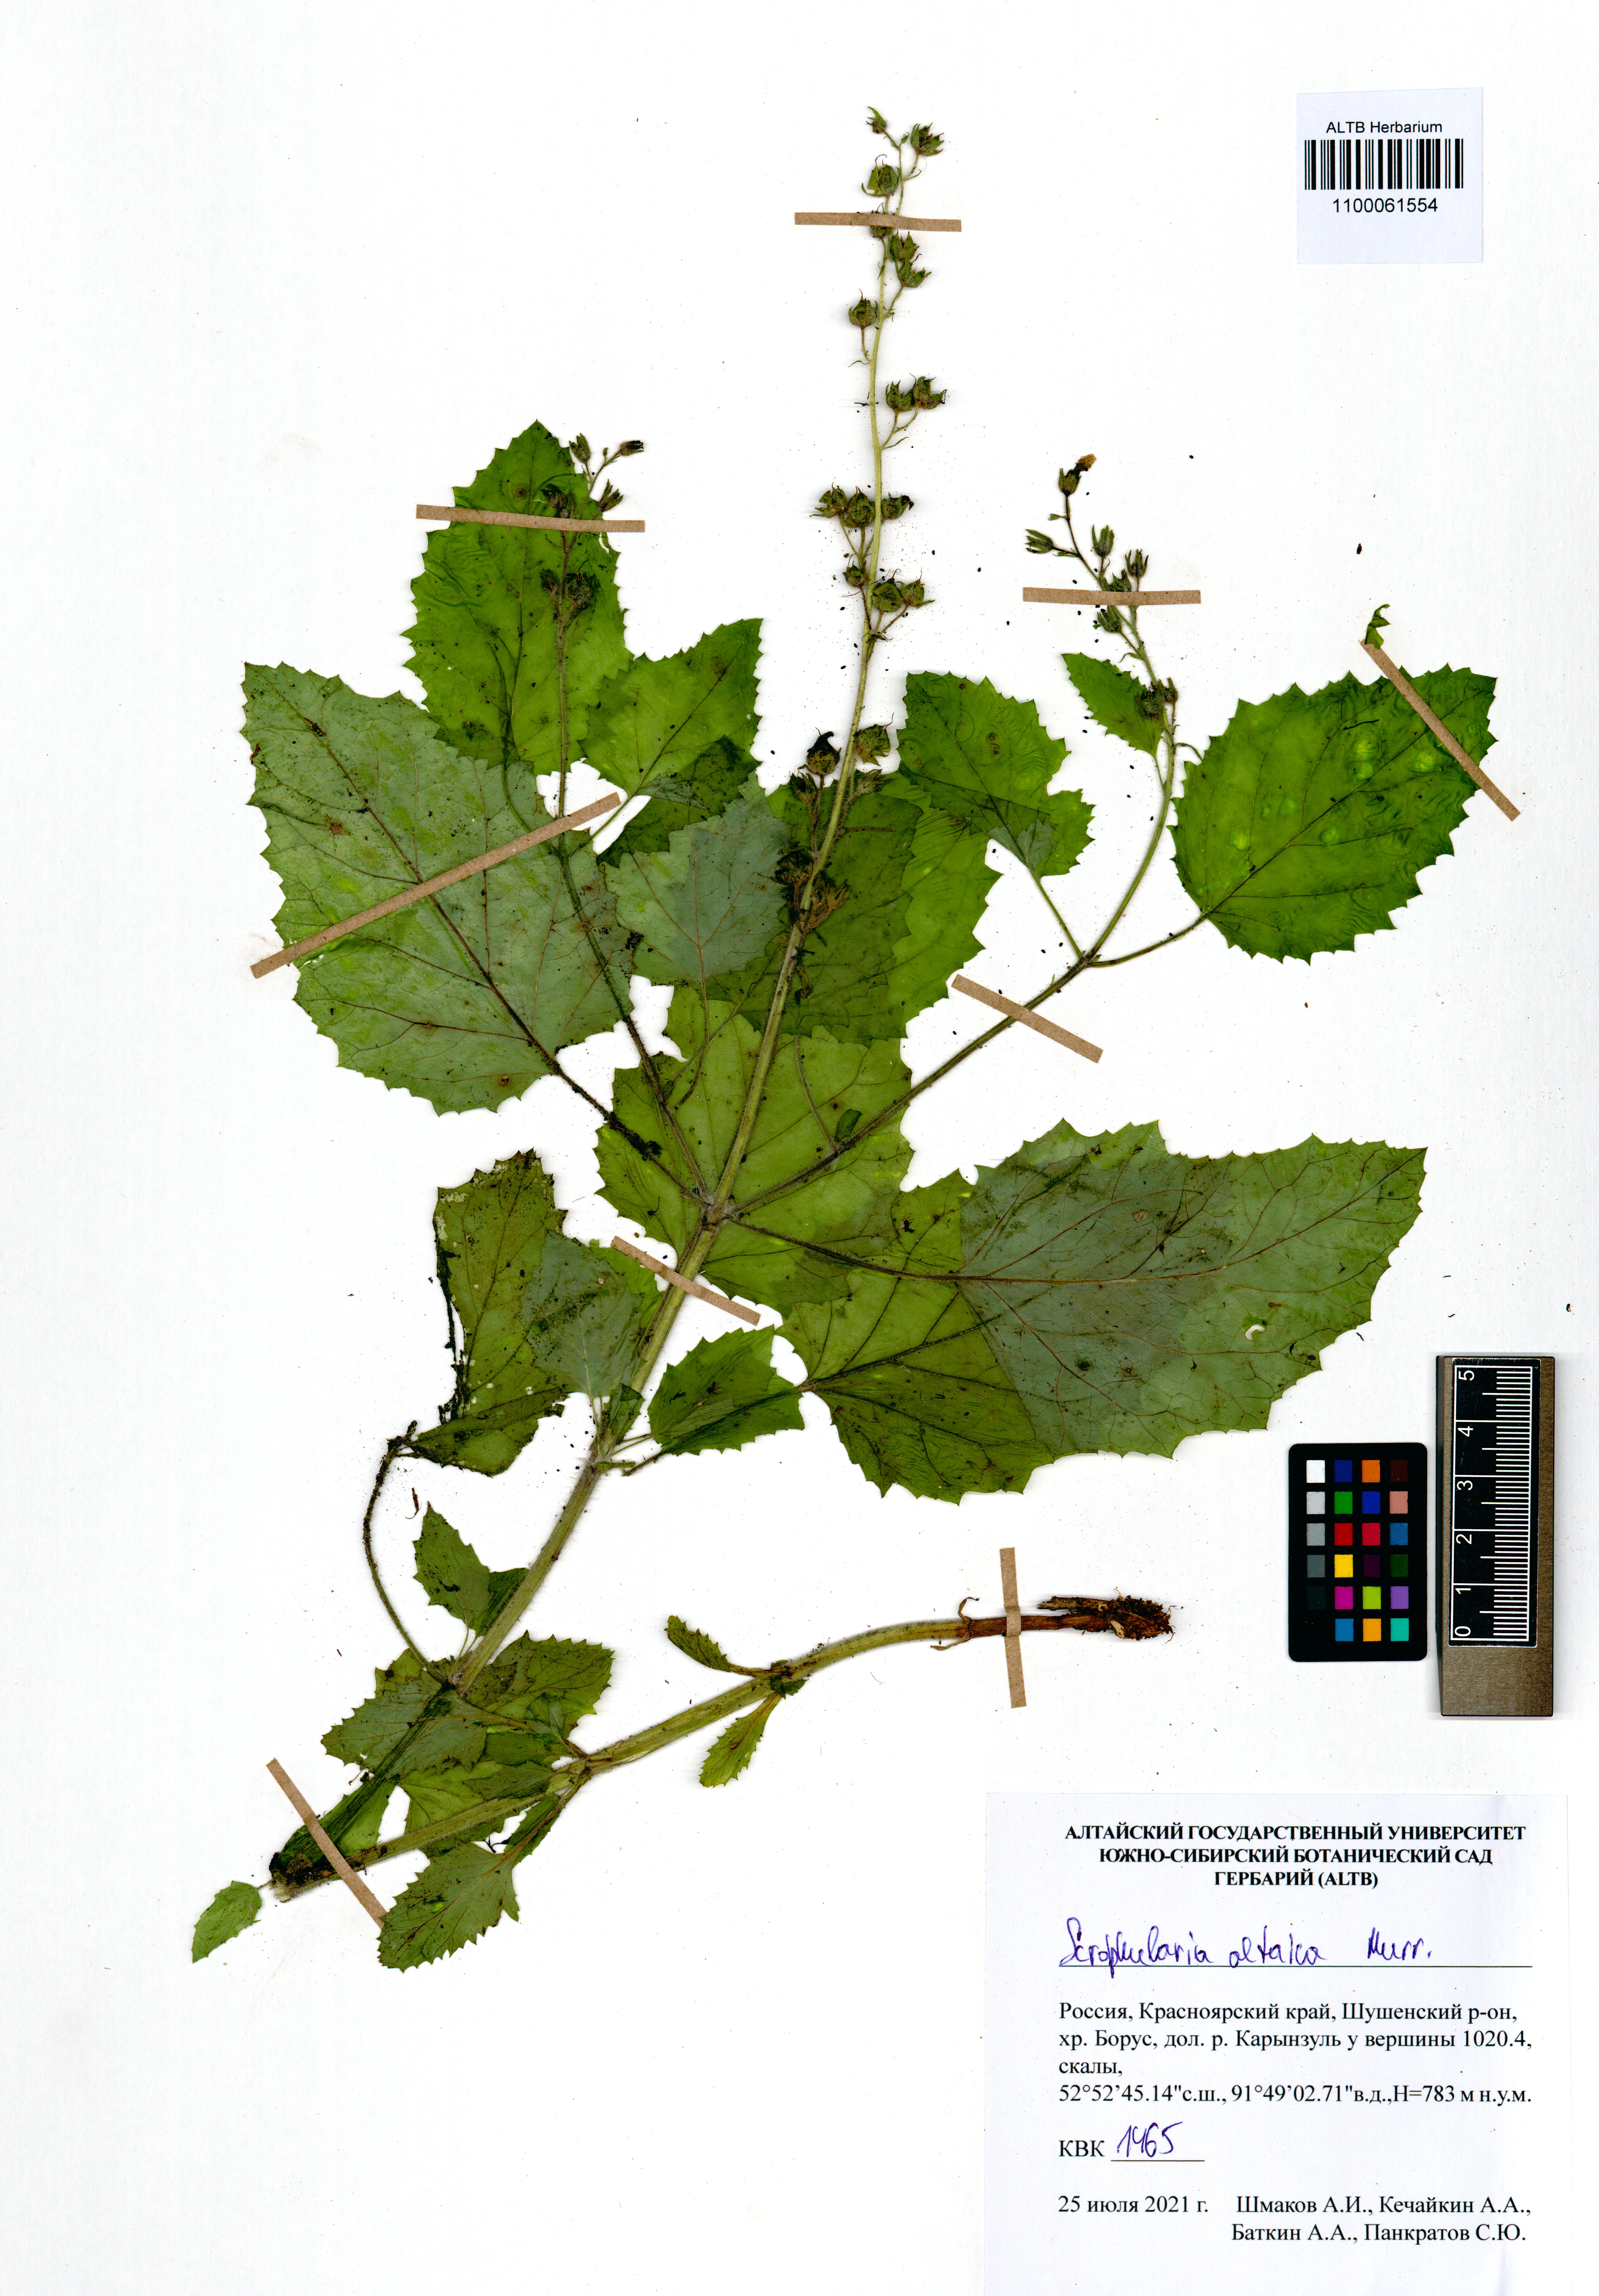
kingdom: Plantae
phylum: Tracheophyta
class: Magnoliopsida
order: Lamiales
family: Scrophulariaceae
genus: Scrophularia
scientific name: Scrophularia altaica
